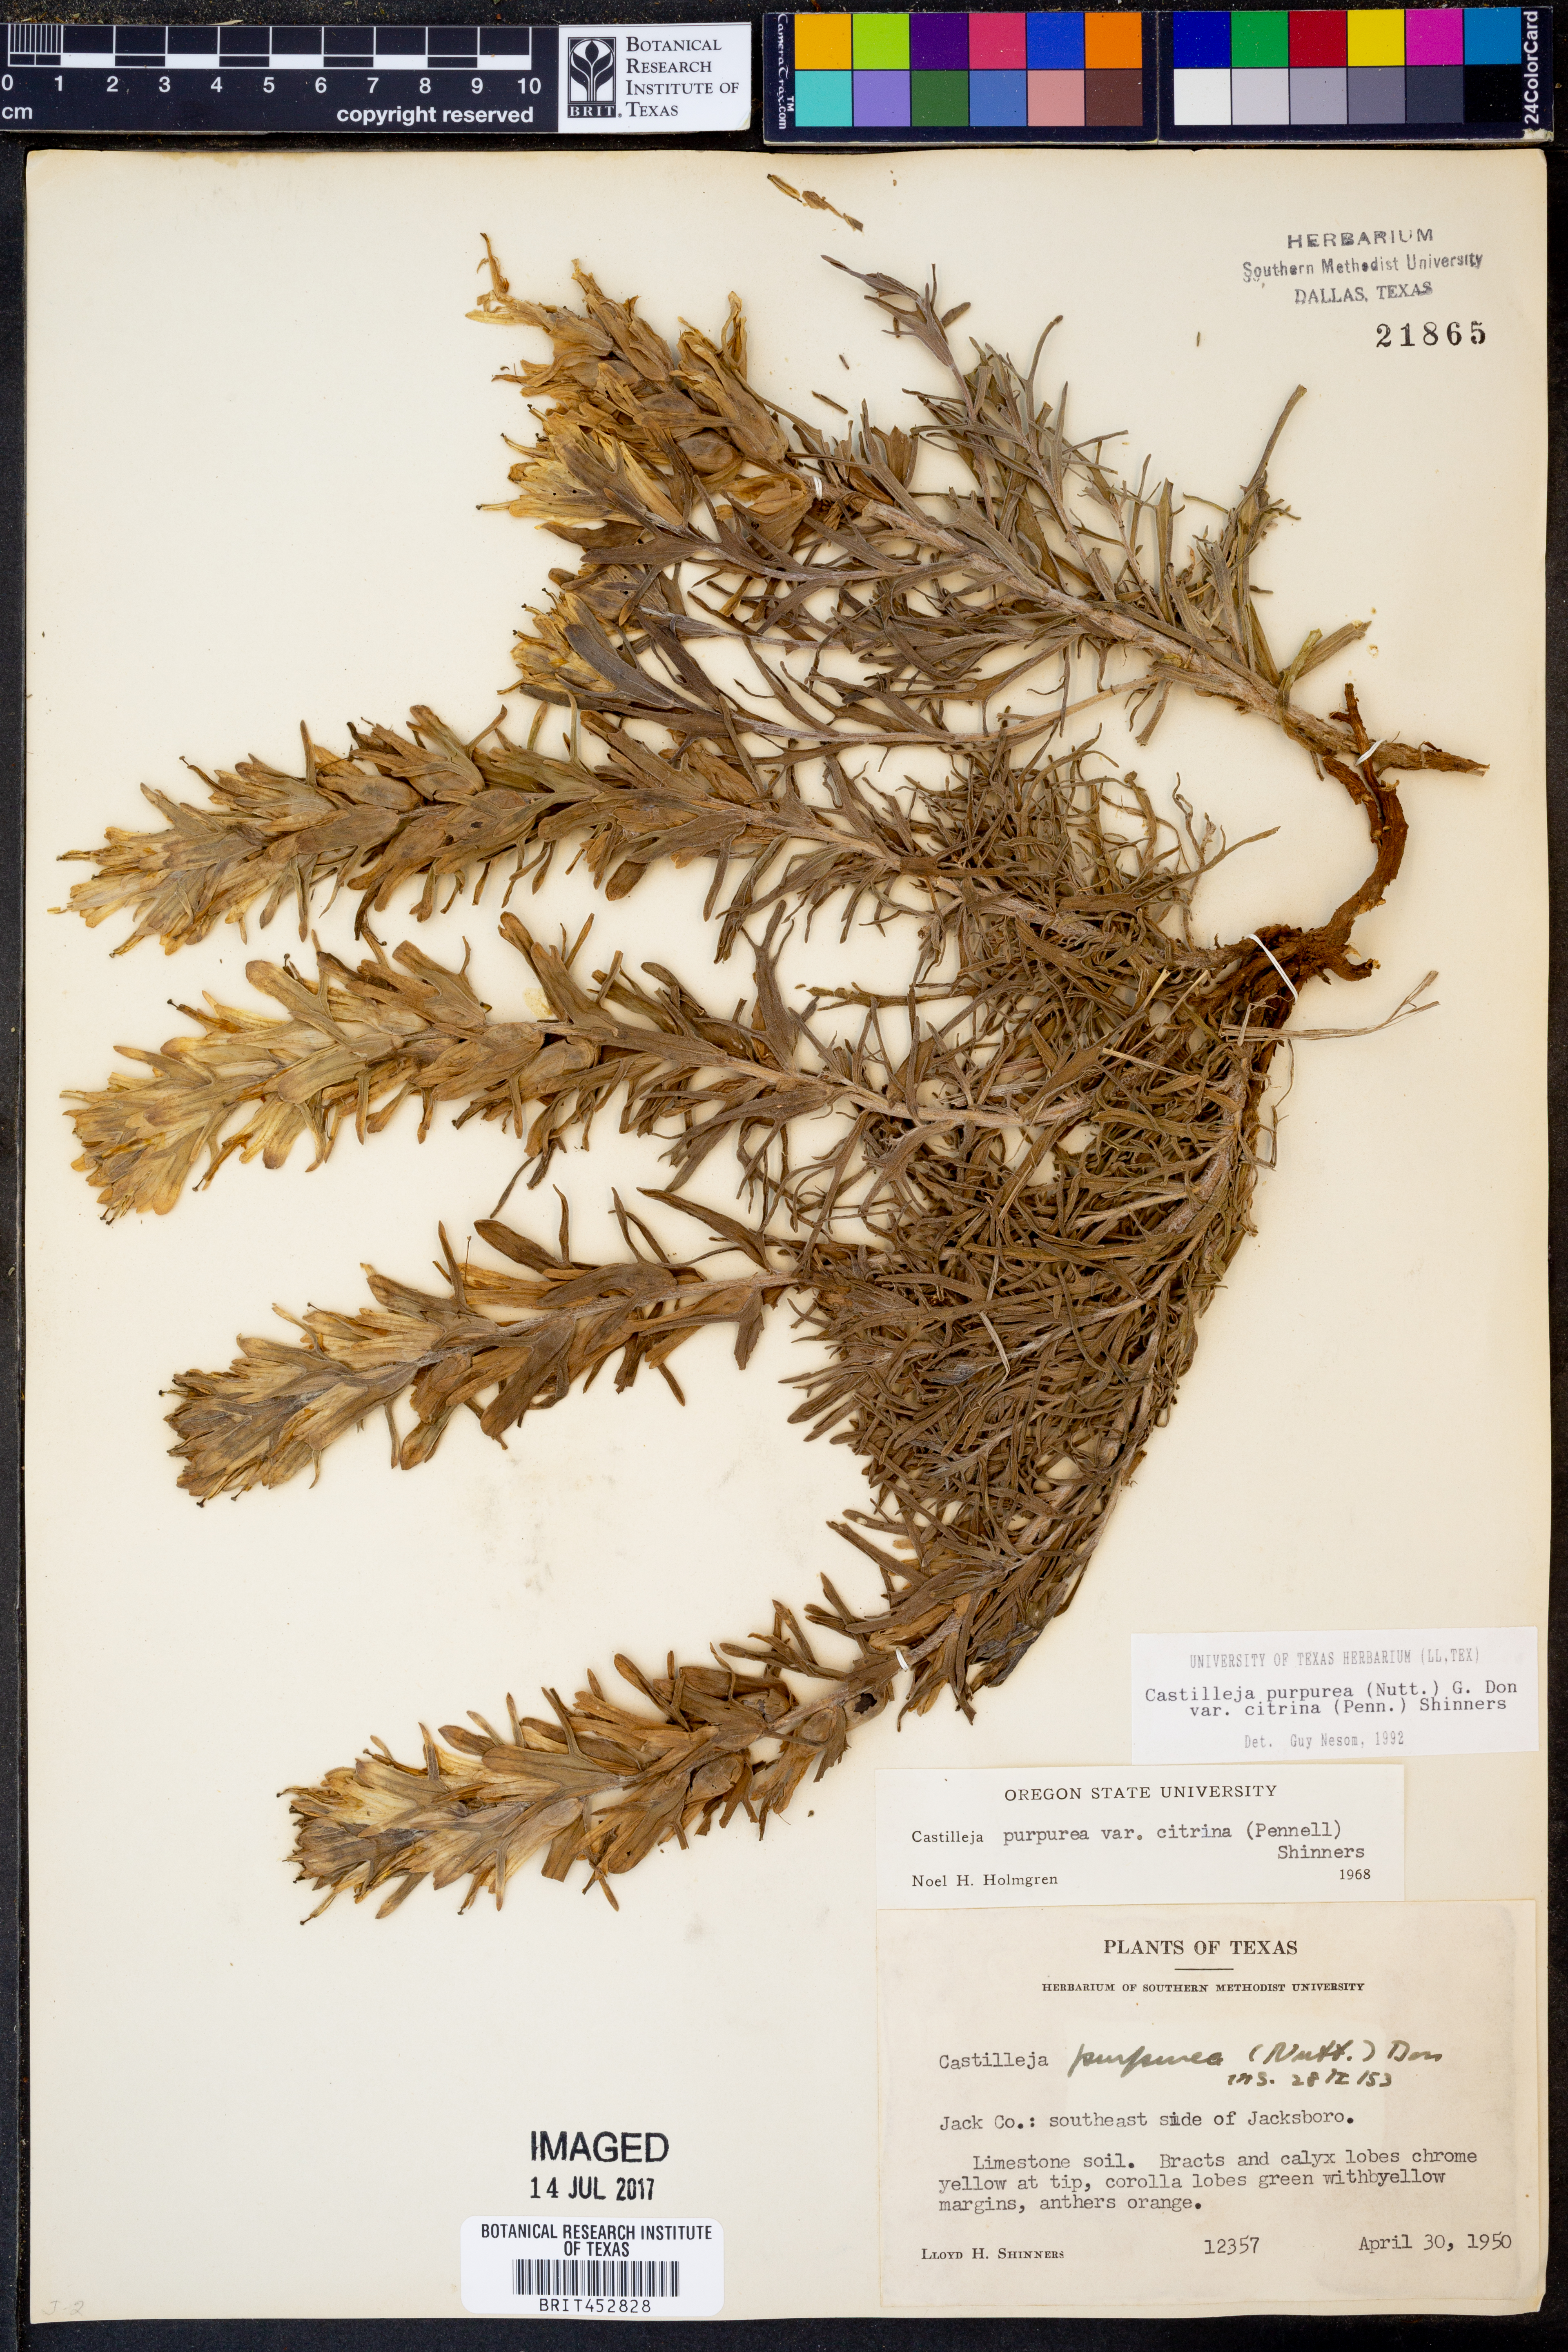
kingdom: Plantae
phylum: Tracheophyta
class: Magnoliopsida
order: Lamiales
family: Orobanchaceae
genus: Castilleja
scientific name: Castilleja purpurea
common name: Plains paintbrush
